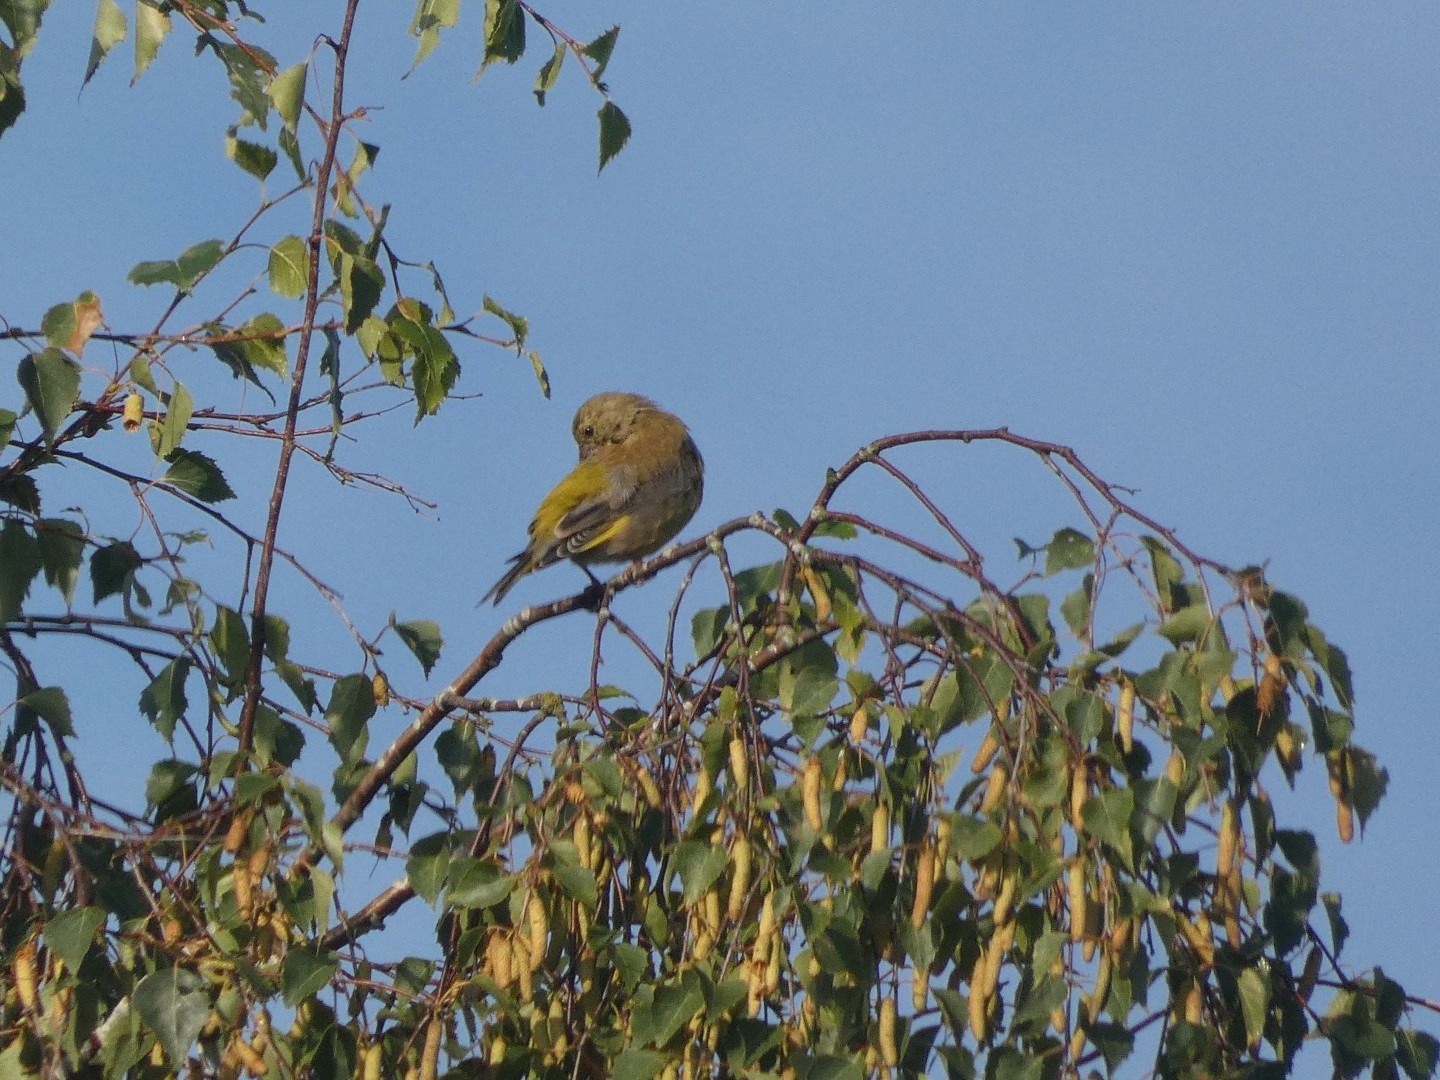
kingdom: Plantae
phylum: Tracheophyta
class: Liliopsida
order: Poales
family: Poaceae
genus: Chloris
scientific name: Chloris chloris
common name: Grønirisk
